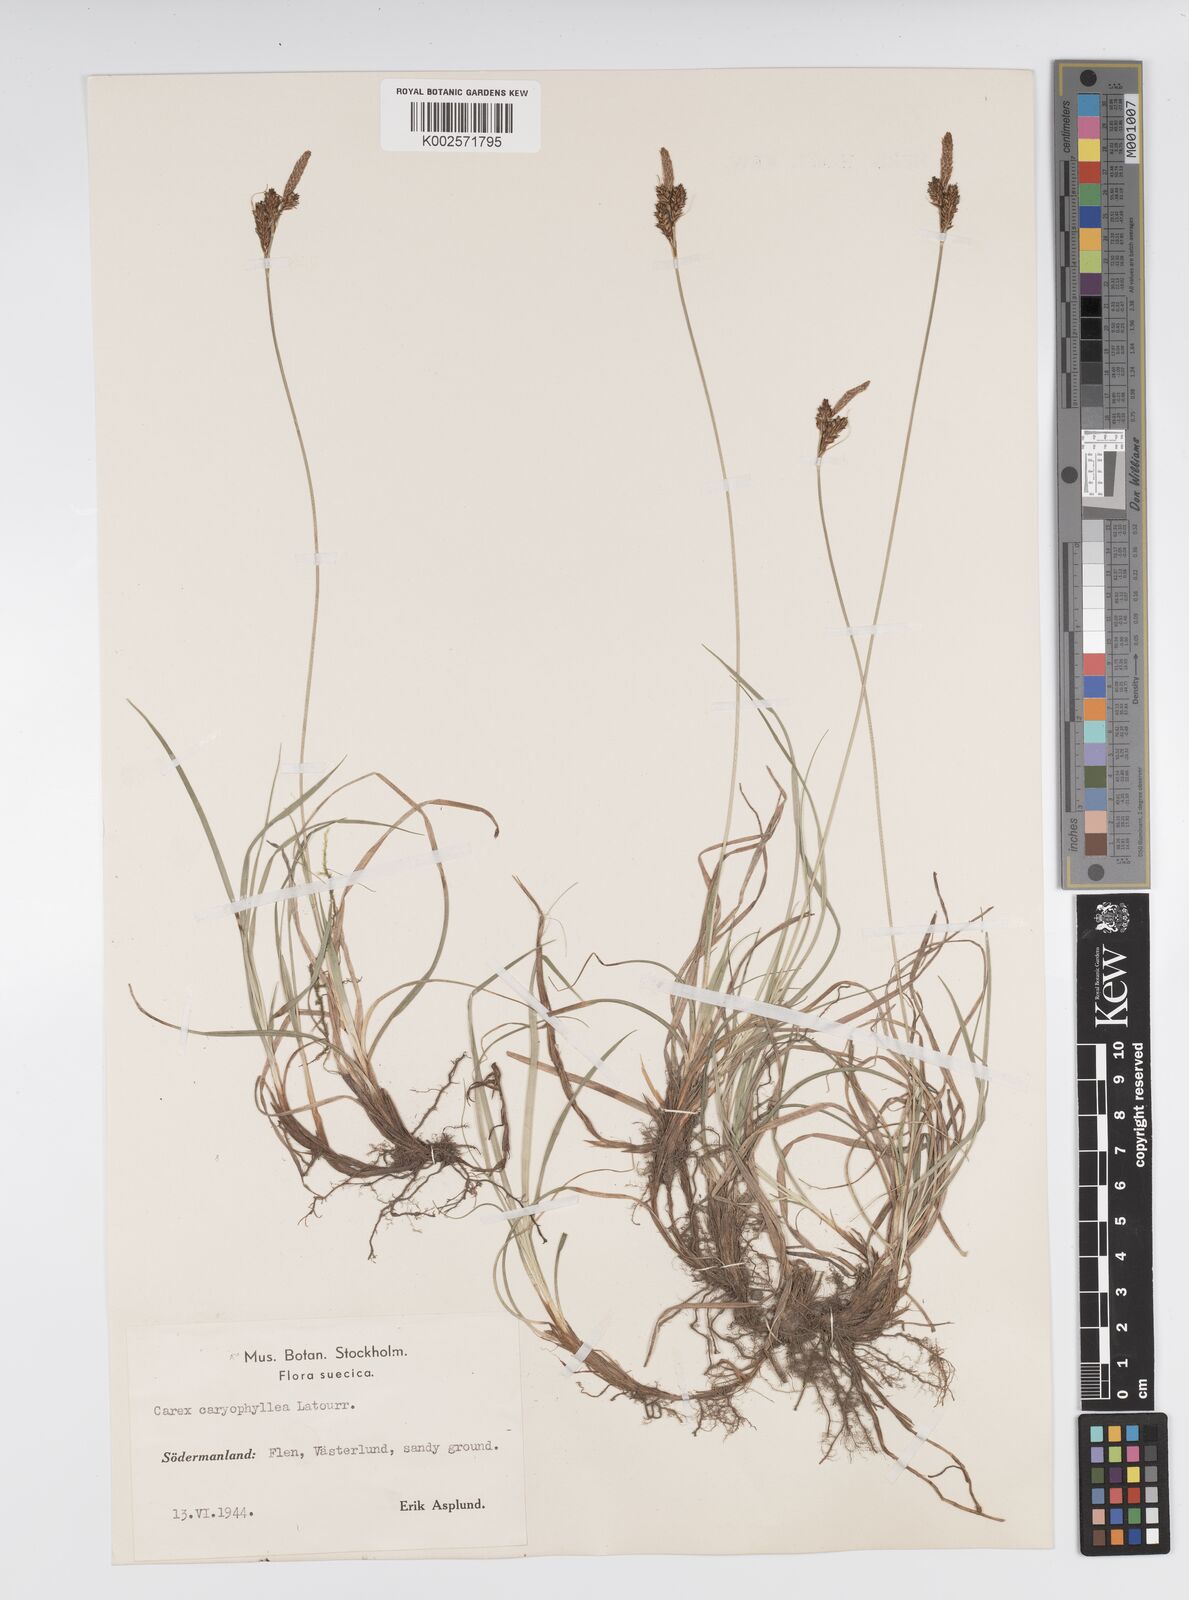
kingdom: Plantae
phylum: Tracheophyta
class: Liliopsida
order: Poales
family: Cyperaceae
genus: Carex
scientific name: Carex caryophyllea
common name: Spring sedge
